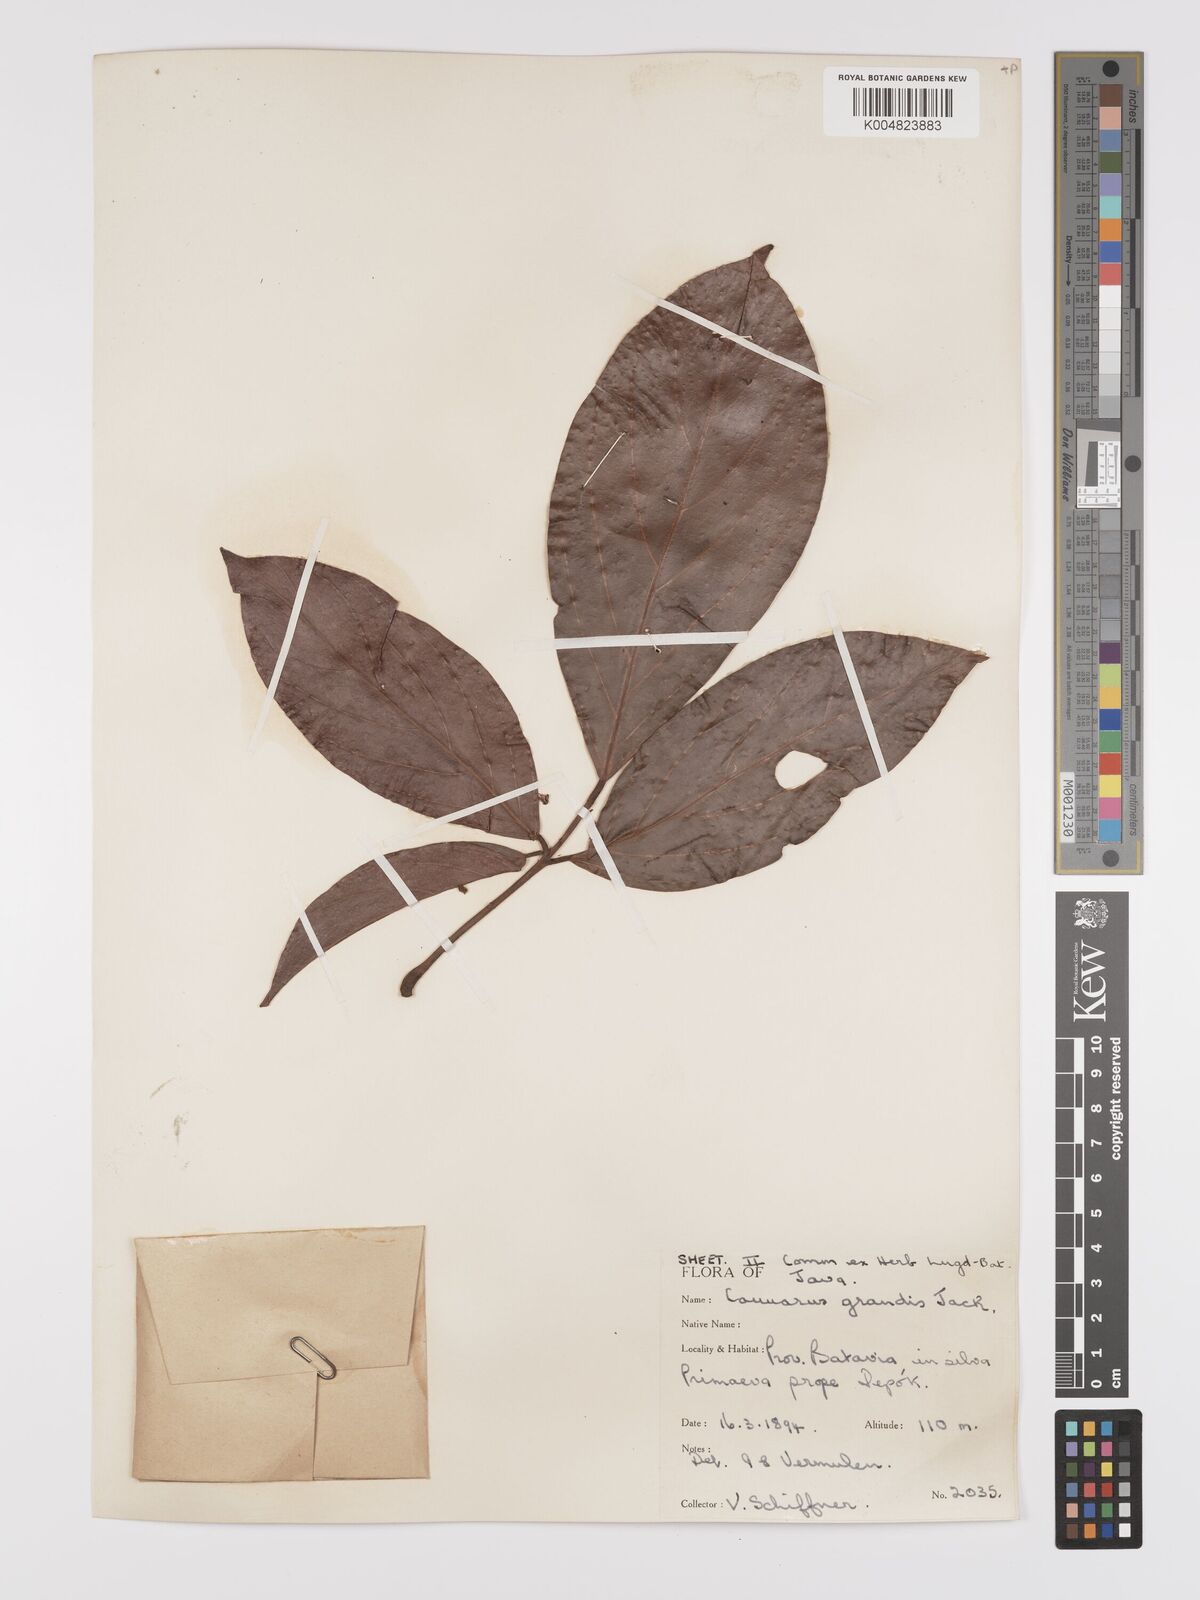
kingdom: Plantae
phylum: Tracheophyta
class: Magnoliopsida
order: Oxalidales
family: Connaraceae
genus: Connarus
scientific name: Connarus grandis
